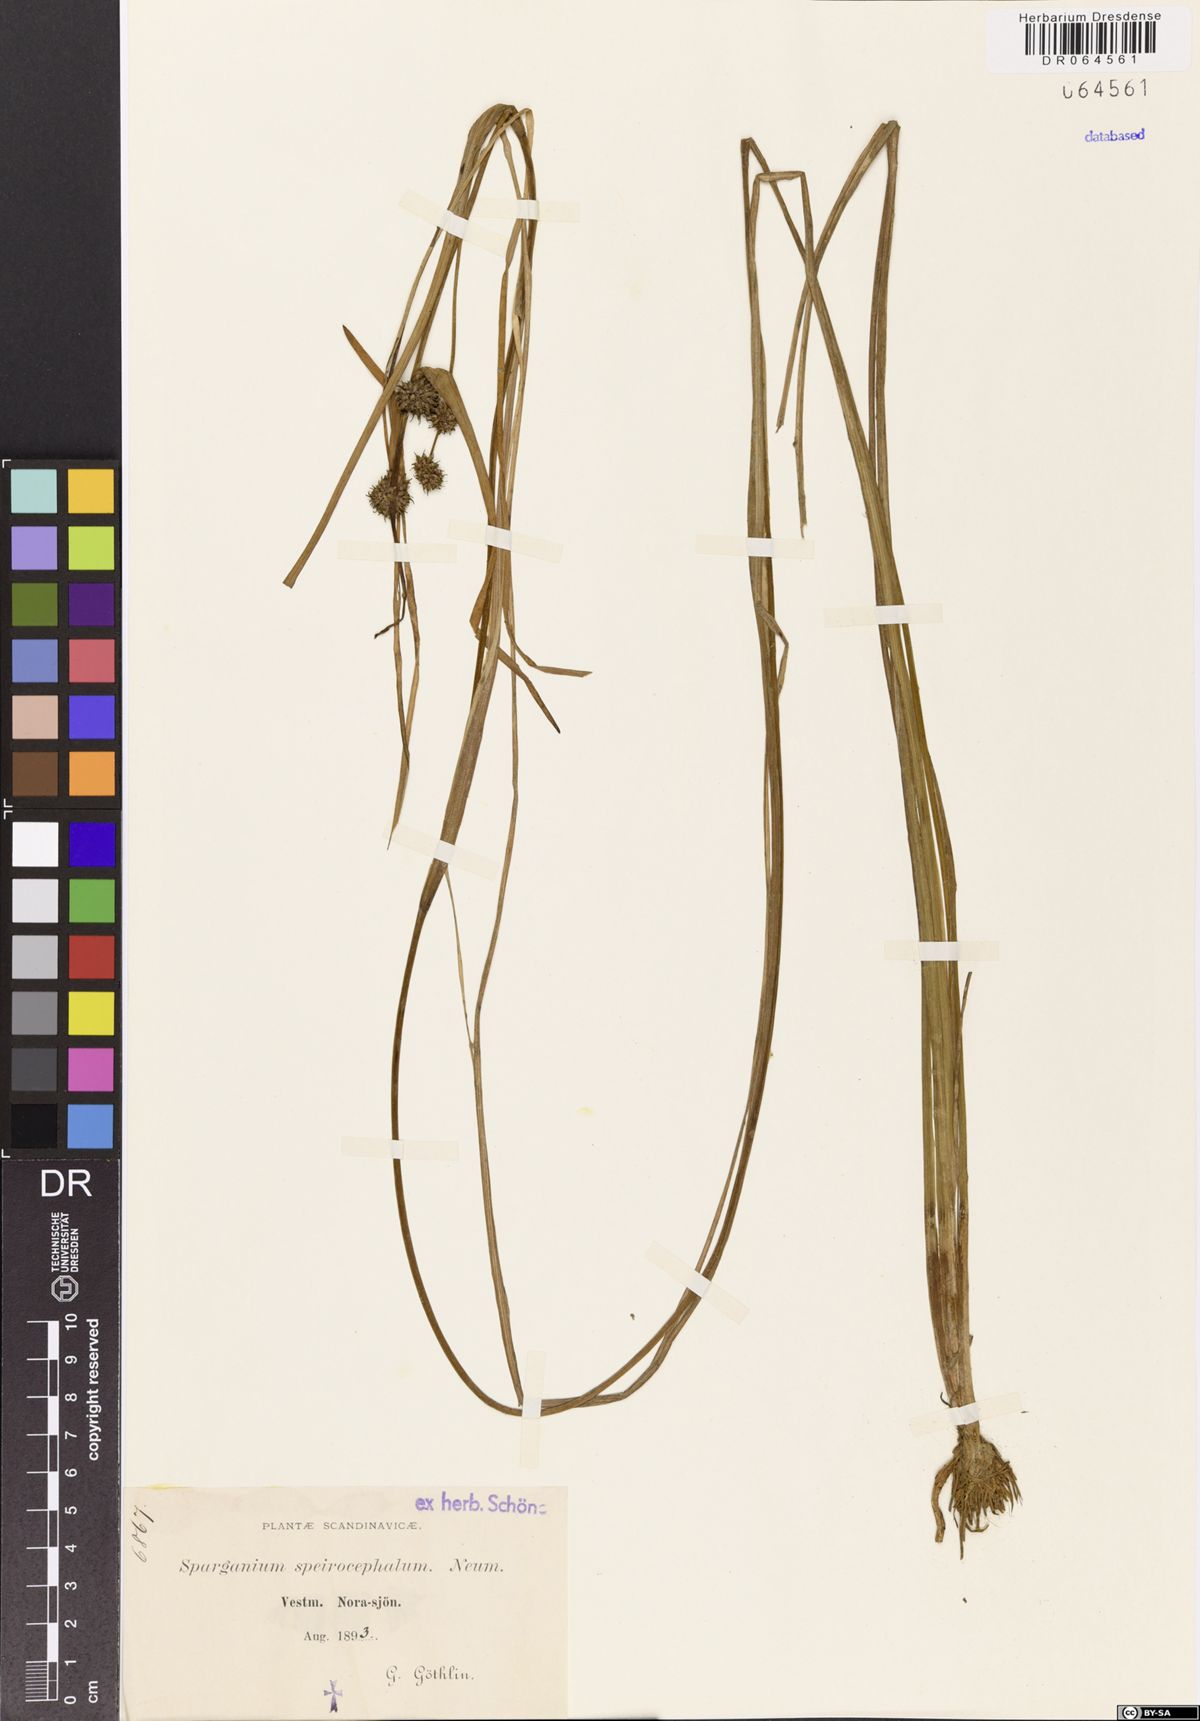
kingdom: Plantae
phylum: Tracheophyta
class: Liliopsida
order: Poales
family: Typhaceae
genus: Sparganium
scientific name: Sparganium speirocephalum
